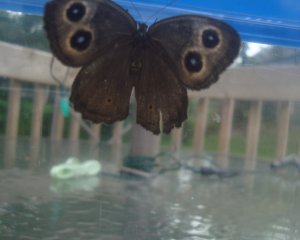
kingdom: Animalia
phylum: Arthropoda
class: Insecta
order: Lepidoptera
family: Nymphalidae
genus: Cercyonis
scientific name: Cercyonis pegala
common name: Common Wood-Nymph
